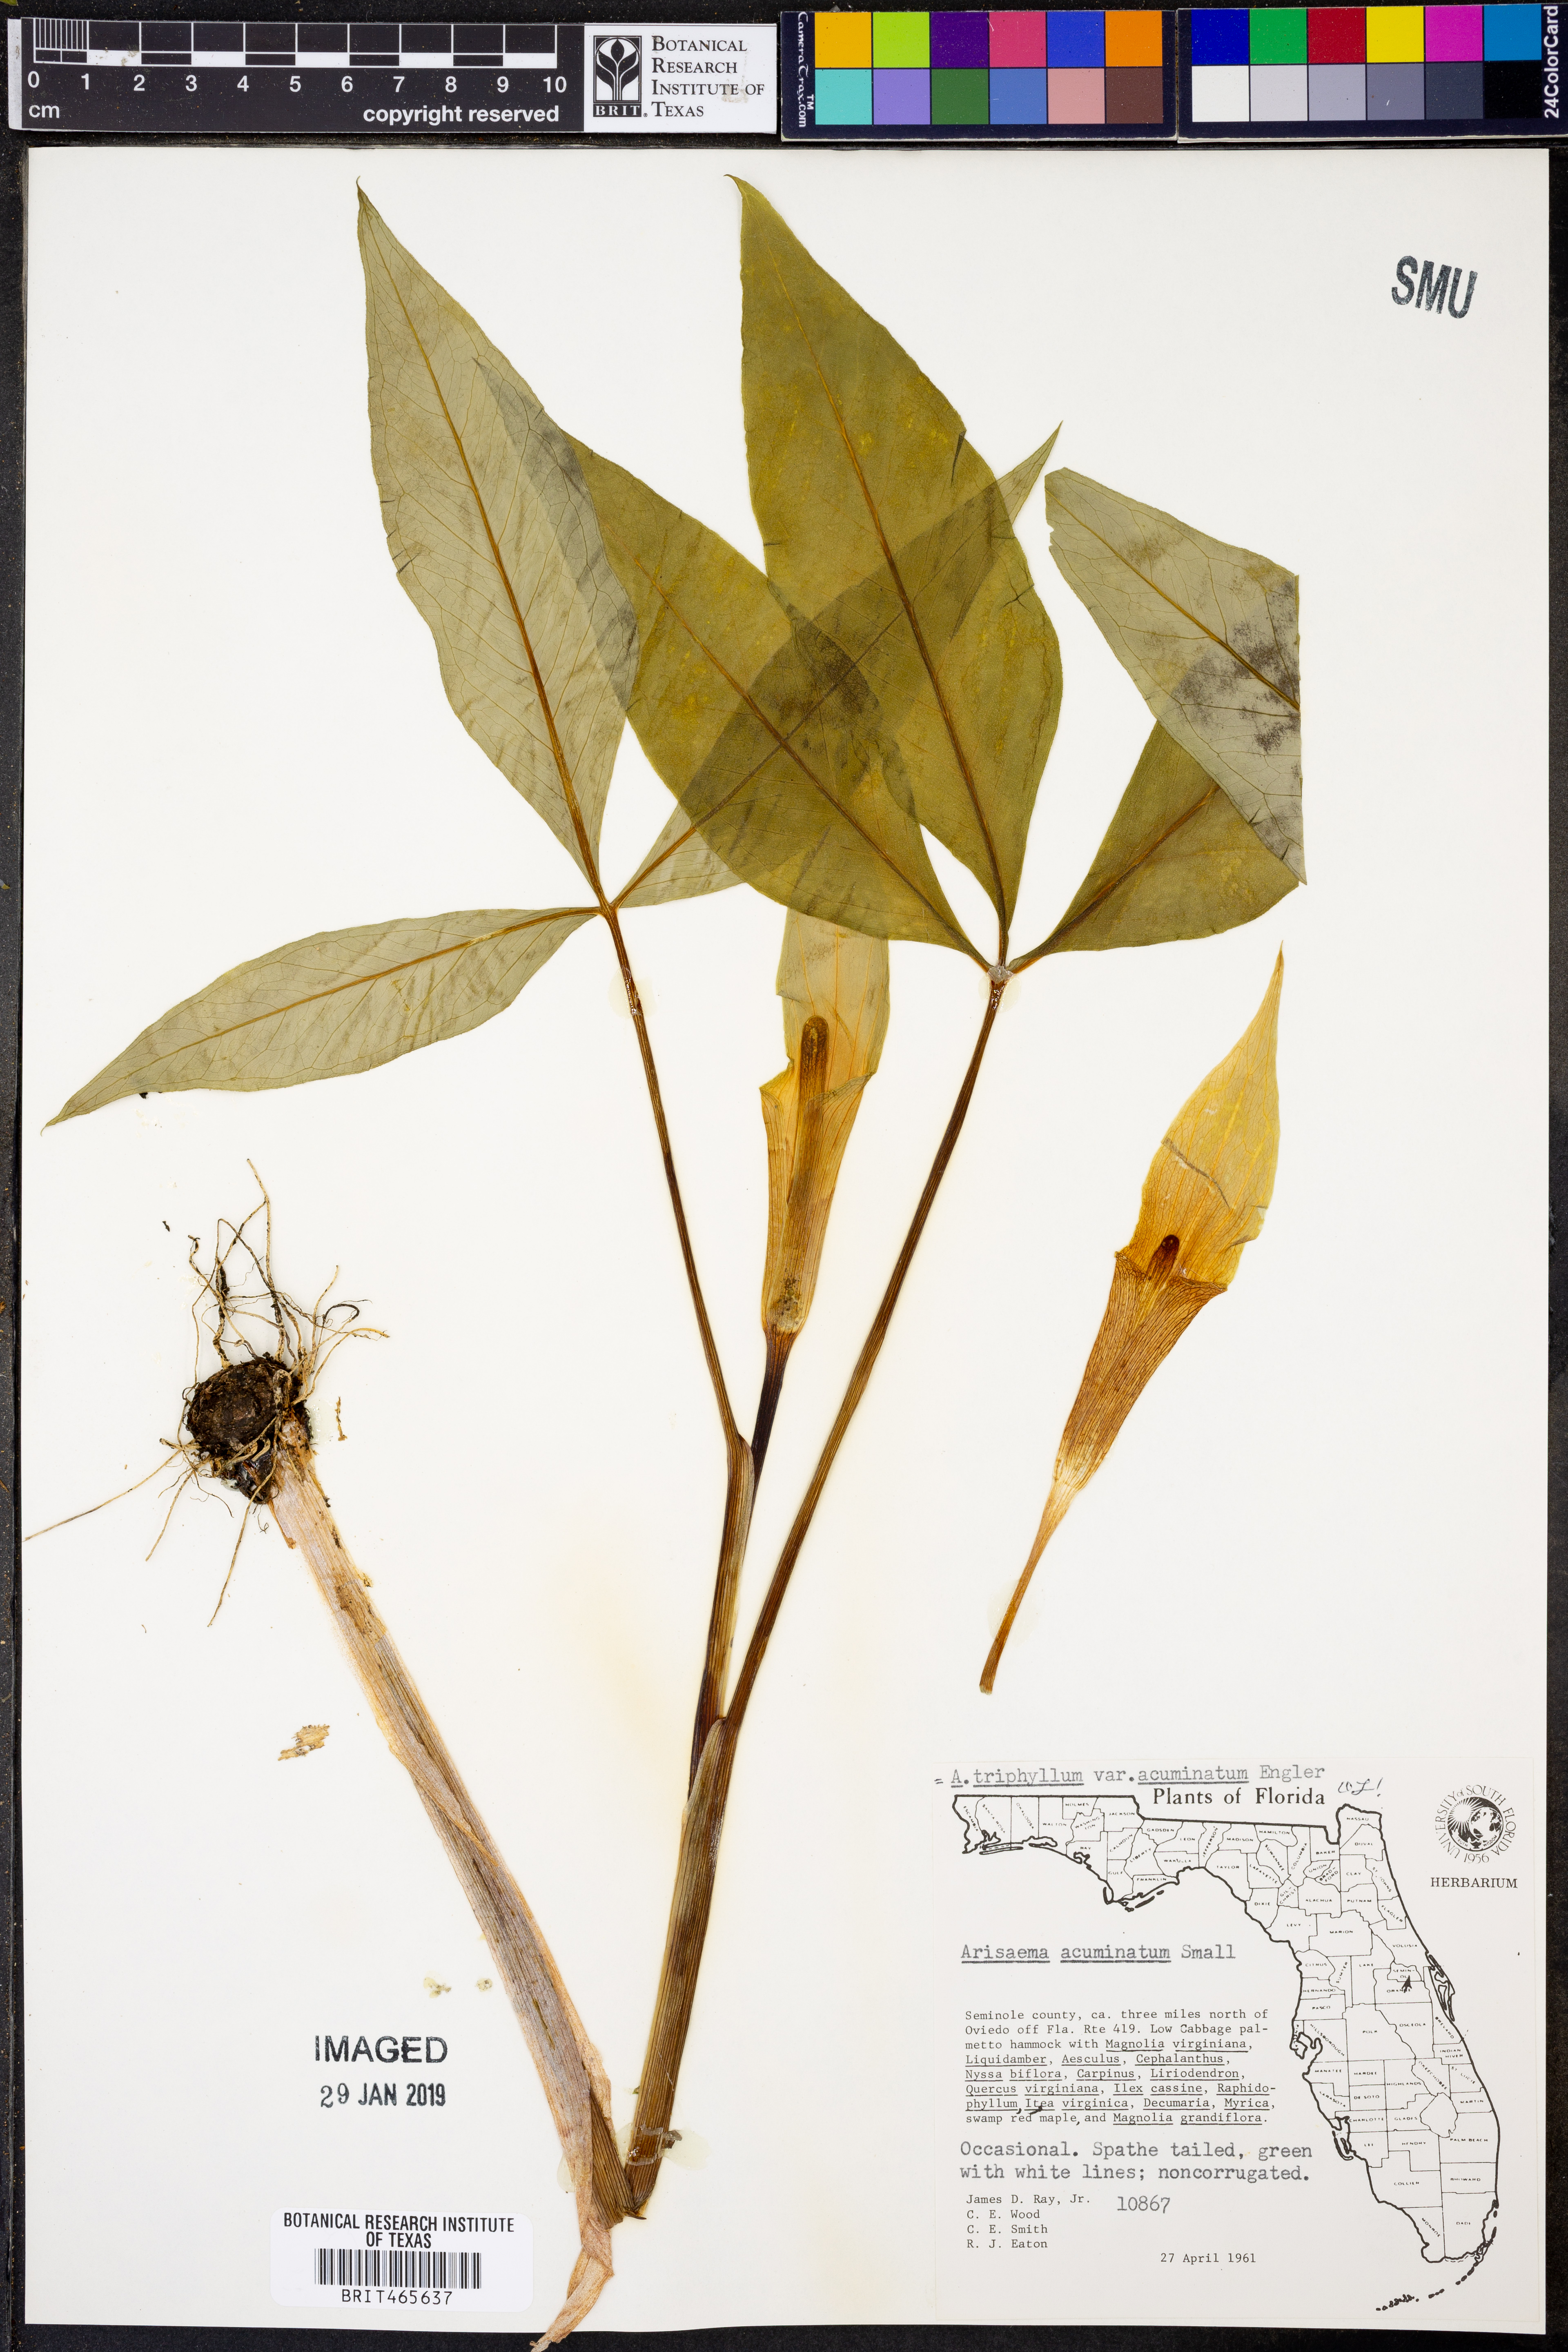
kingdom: Plantae
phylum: Tracheophyta
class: Liliopsida
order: Alismatales
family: Araceae
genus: Arisaema
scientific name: Arisaema acuminatum
